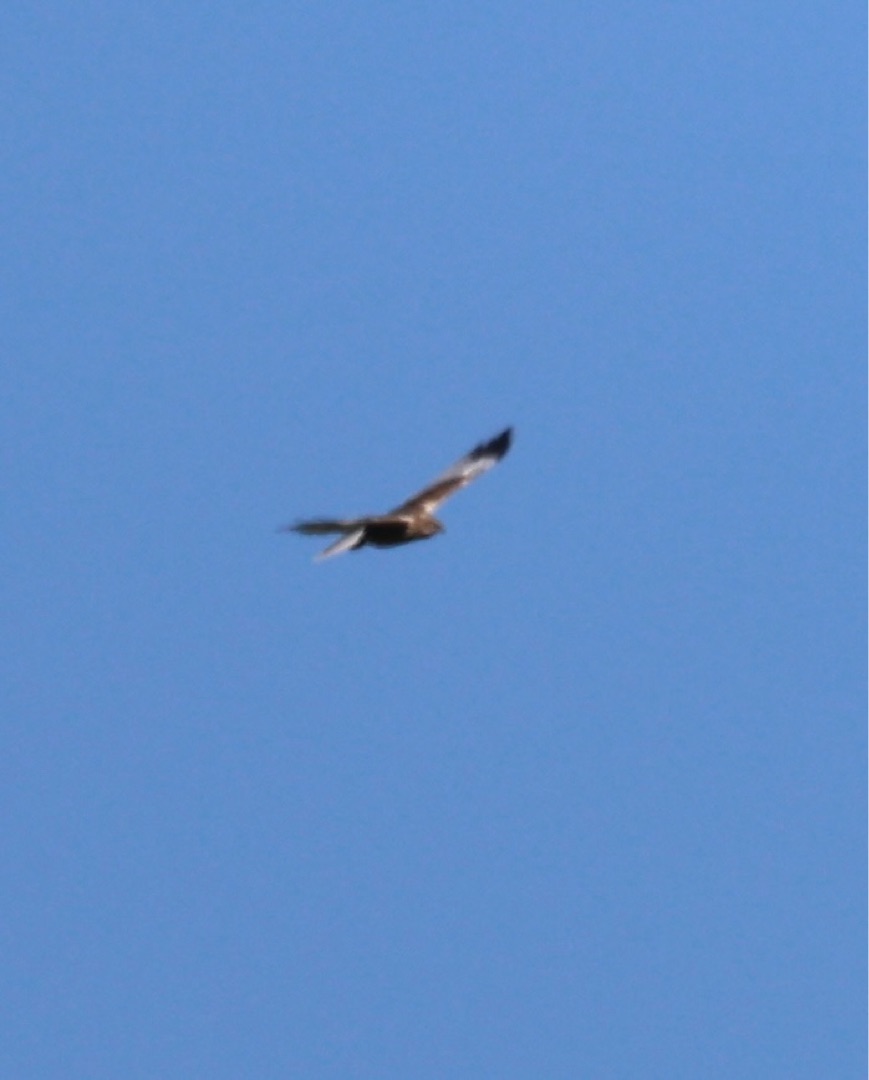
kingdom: Animalia
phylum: Chordata
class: Aves
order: Accipitriformes
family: Accipitridae
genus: Circus
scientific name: Circus aeruginosus
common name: Rørhøg
